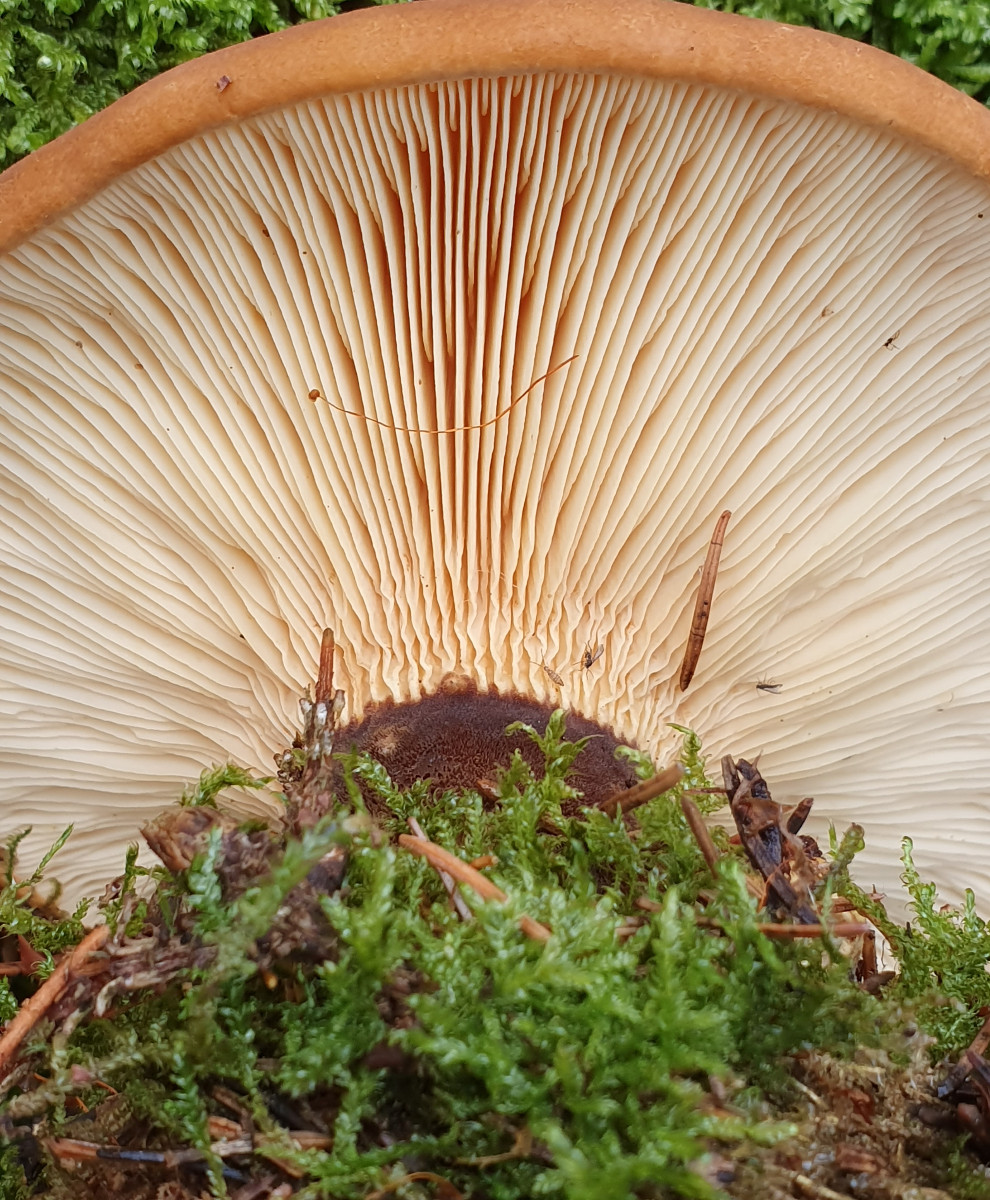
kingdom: Fungi
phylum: Basidiomycota
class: Agaricomycetes
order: Boletales
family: Tapinellaceae
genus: Tapinella
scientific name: Tapinella atrotomentosa
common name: sortfiltet viftesvamp
